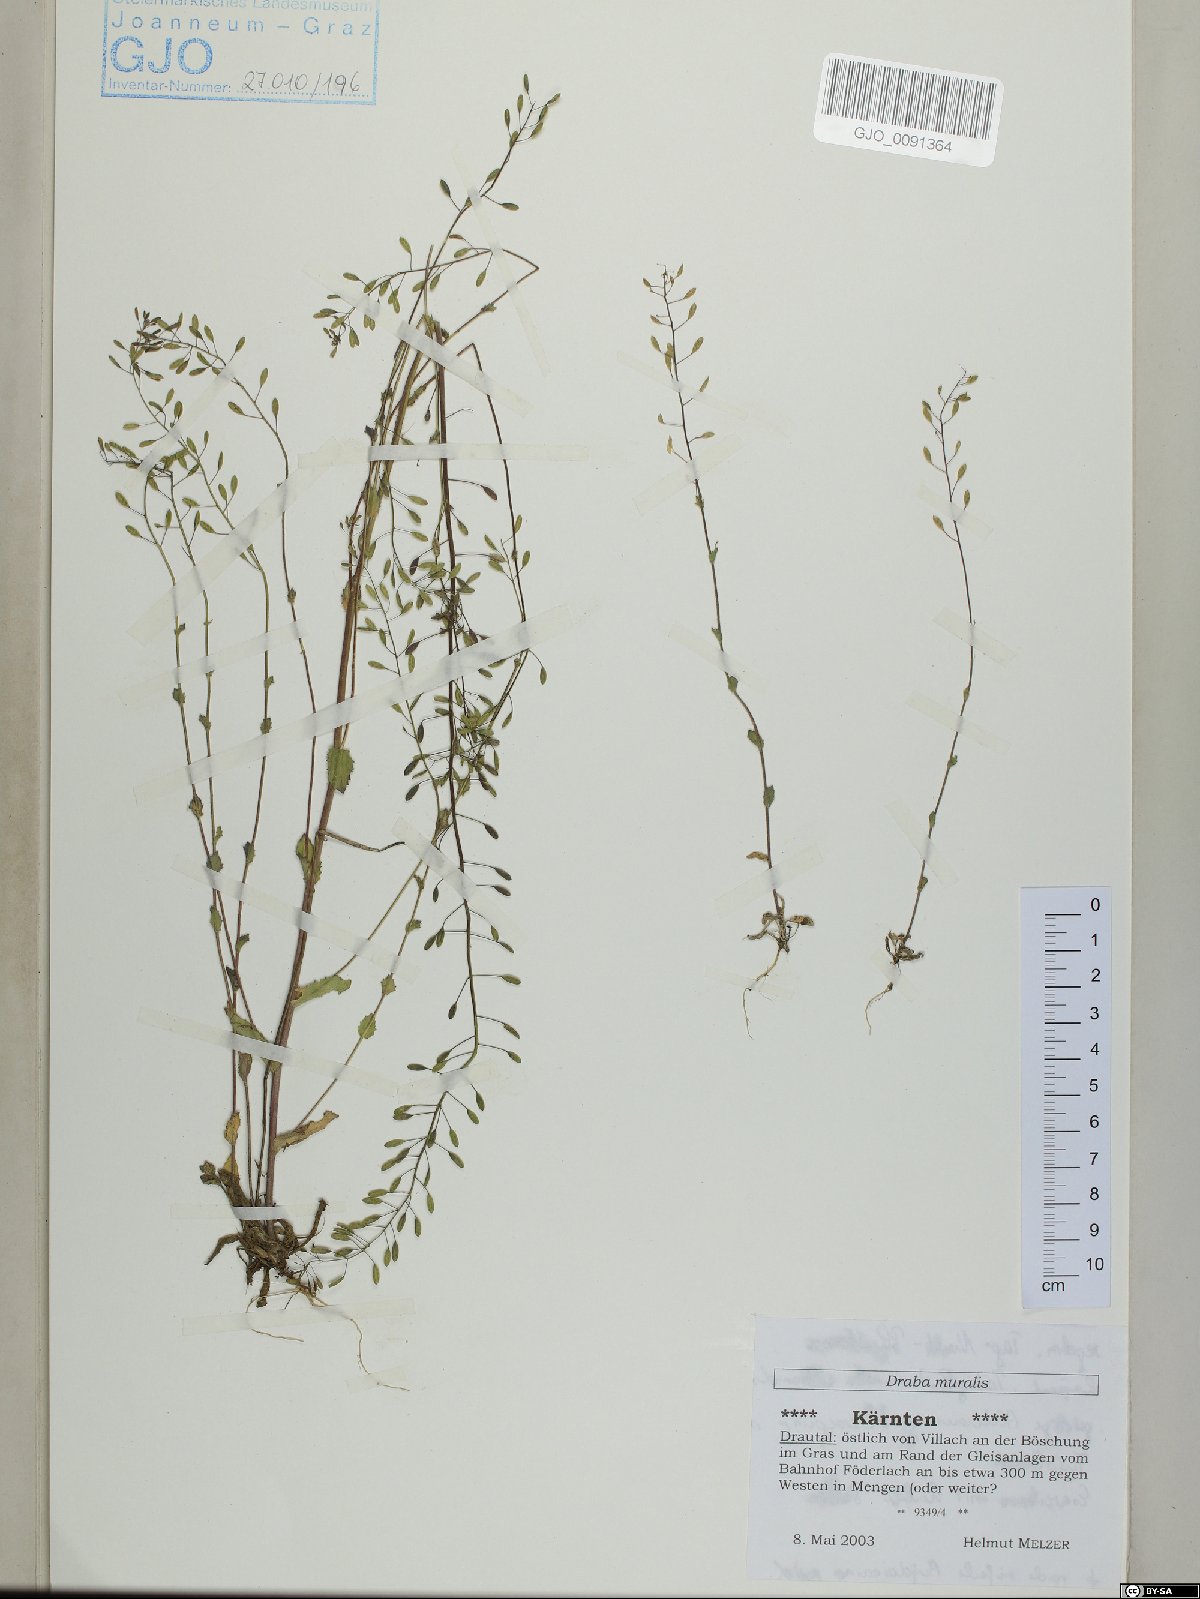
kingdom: Plantae
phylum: Tracheophyta
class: Magnoliopsida
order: Brassicales
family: Brassicaceae
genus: Drabella
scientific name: Drabella muralis
